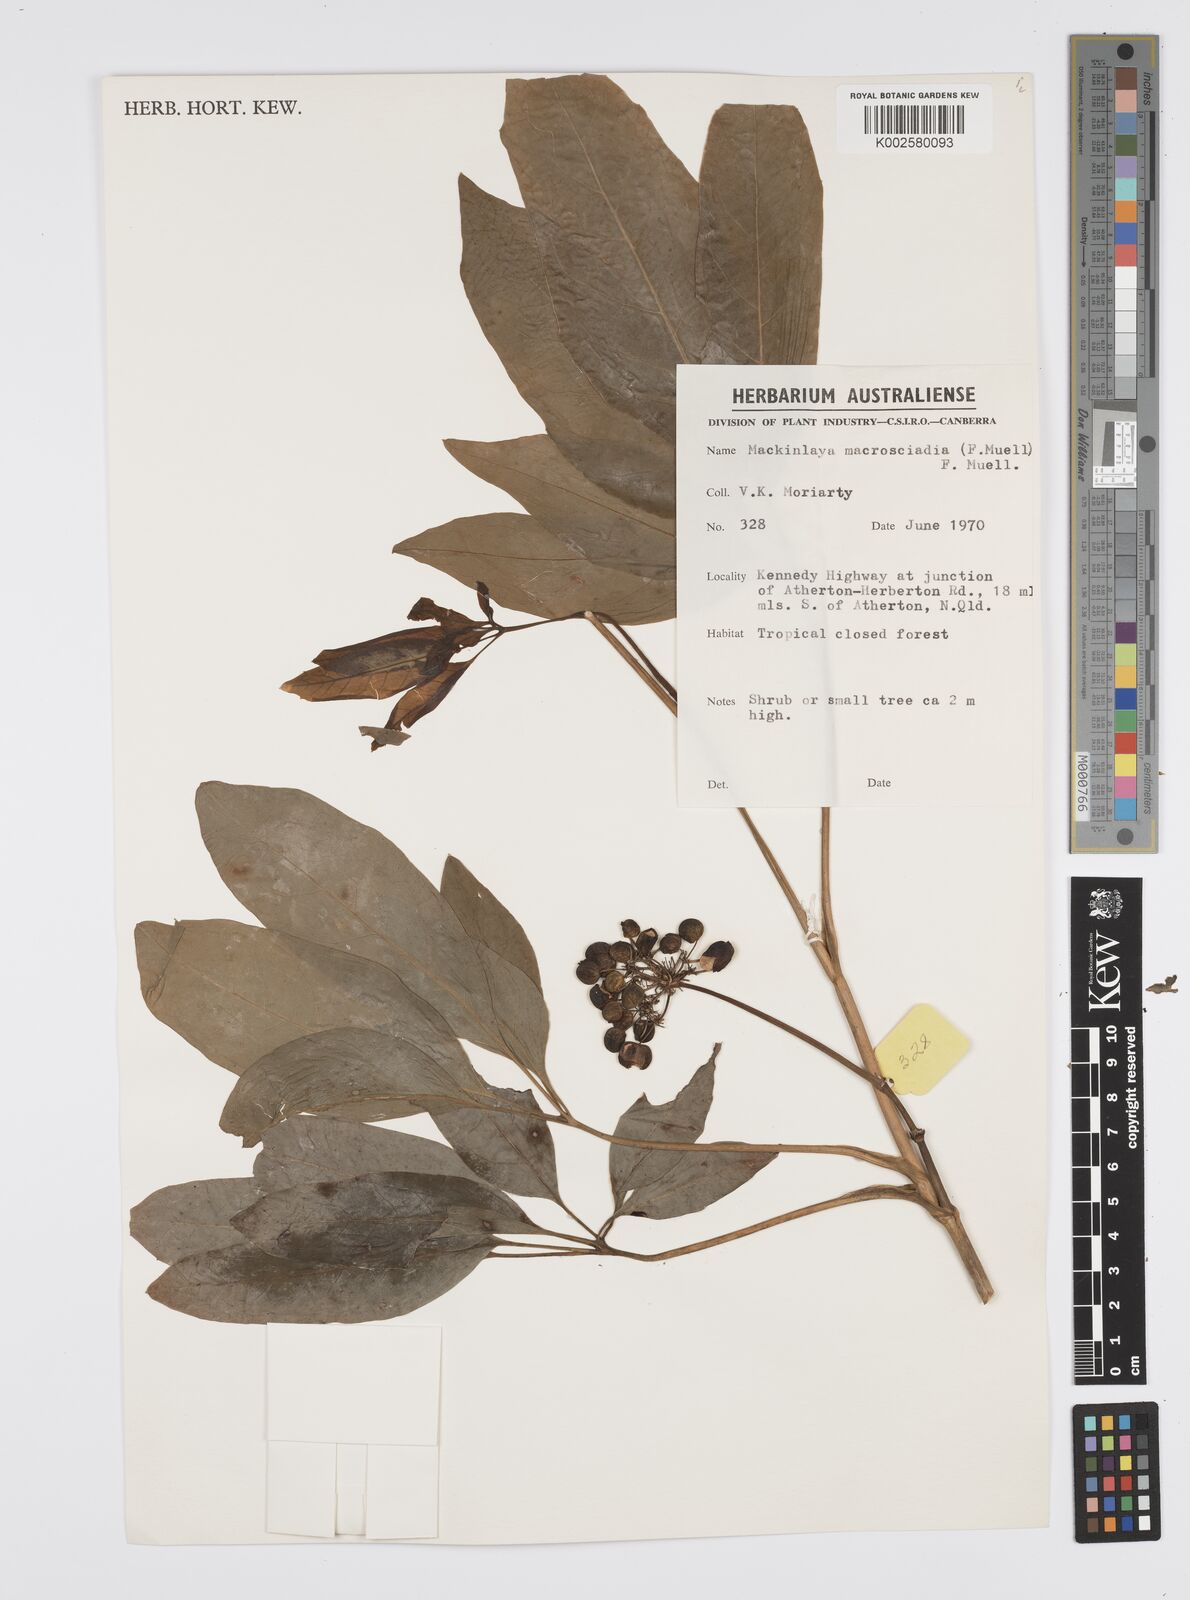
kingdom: Plantae
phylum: Tracheophyta
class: Magnoliopsida
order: Apiales
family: Apiaceae
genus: Mackinlaya
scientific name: Mackinlaya macrosciadea
